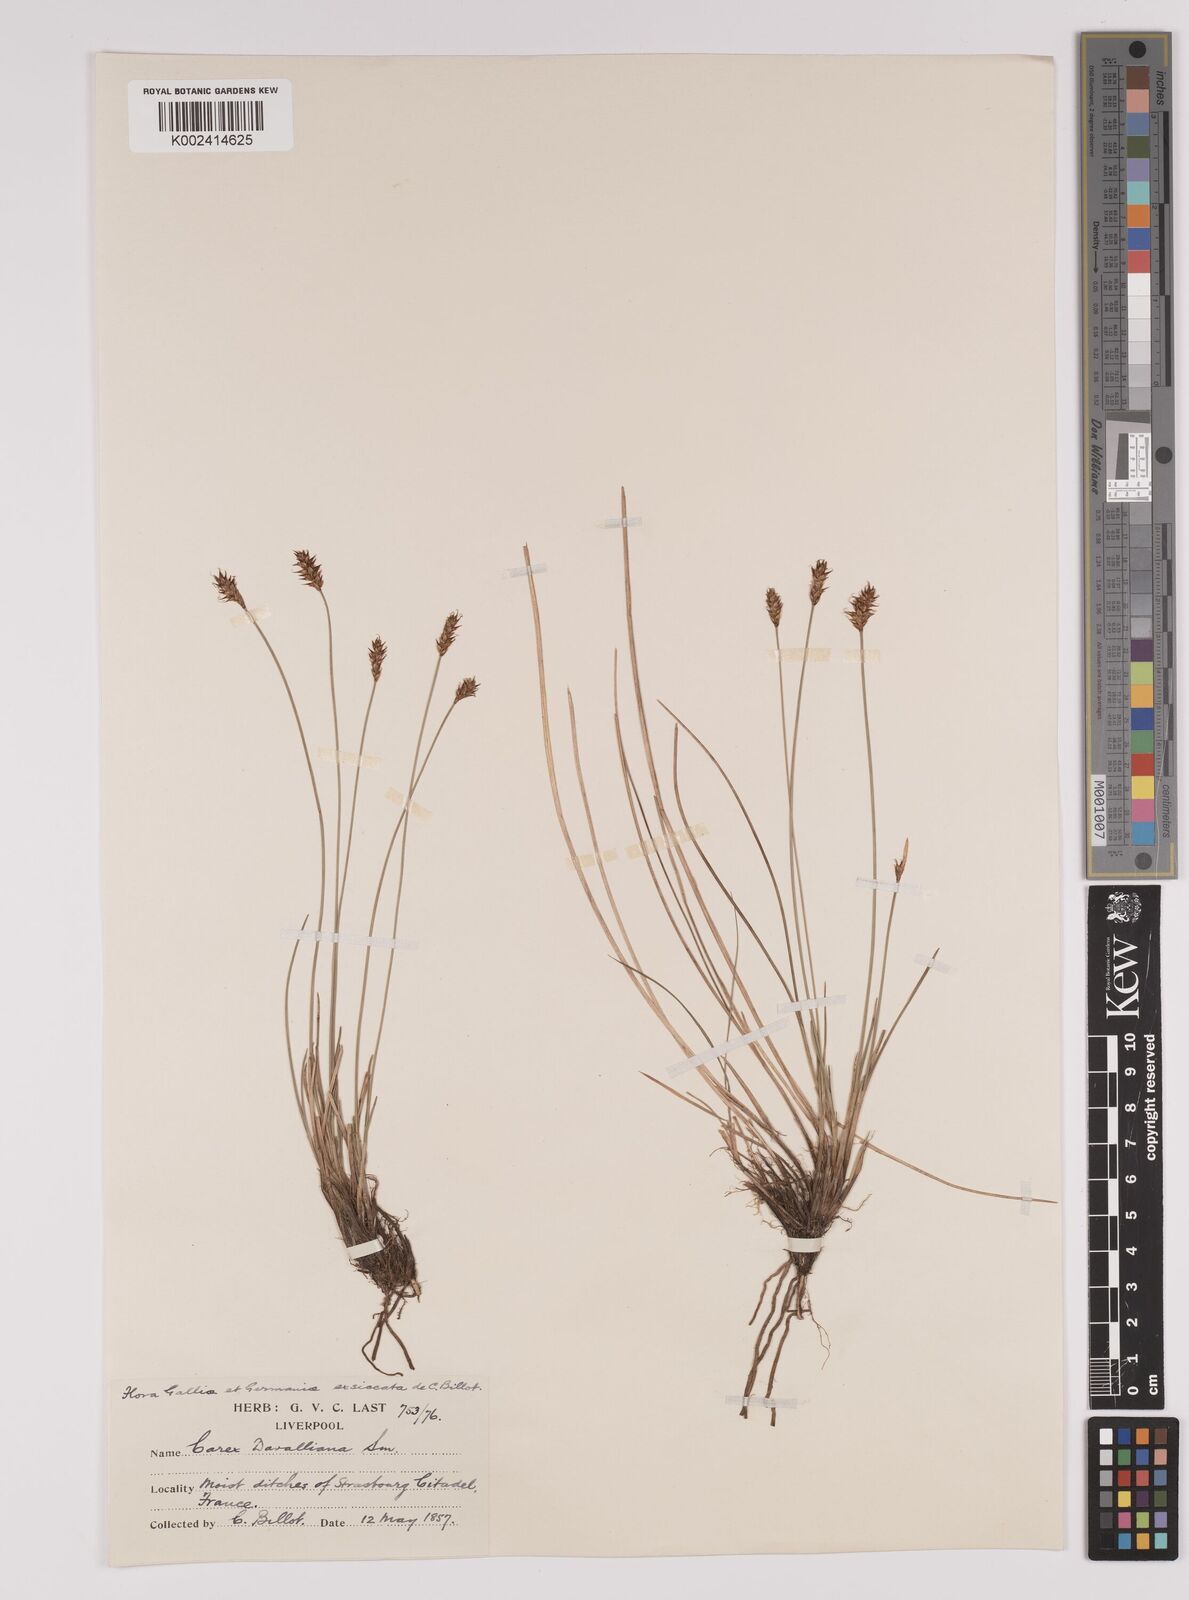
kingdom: Plantae
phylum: Tracheophyta
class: Liliopsida
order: Poales
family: Cyperaceae
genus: Carex
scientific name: Carex davalliana
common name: Davall's sedge
